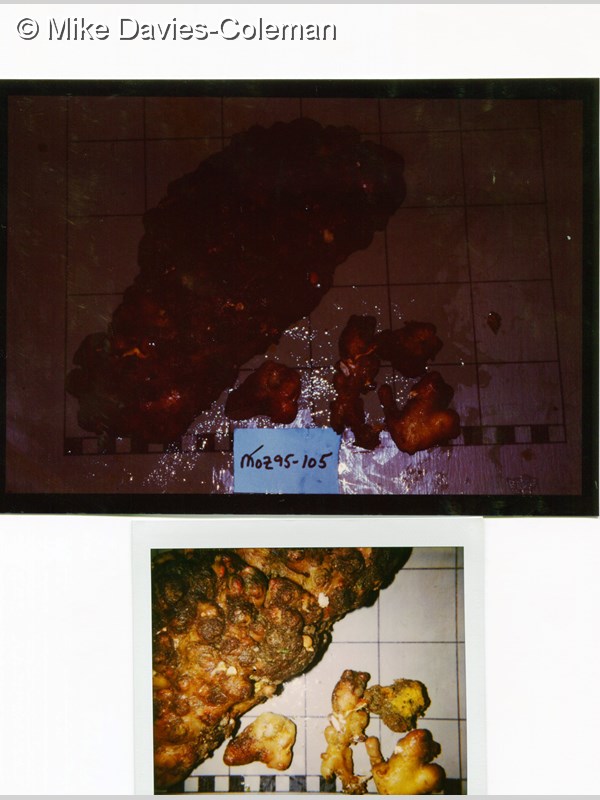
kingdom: Animalia
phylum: Chordata
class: Ascidiacea
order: Phlebobranchia
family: Perophoridae
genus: Ecteinascidia
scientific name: Ecteinascidia
